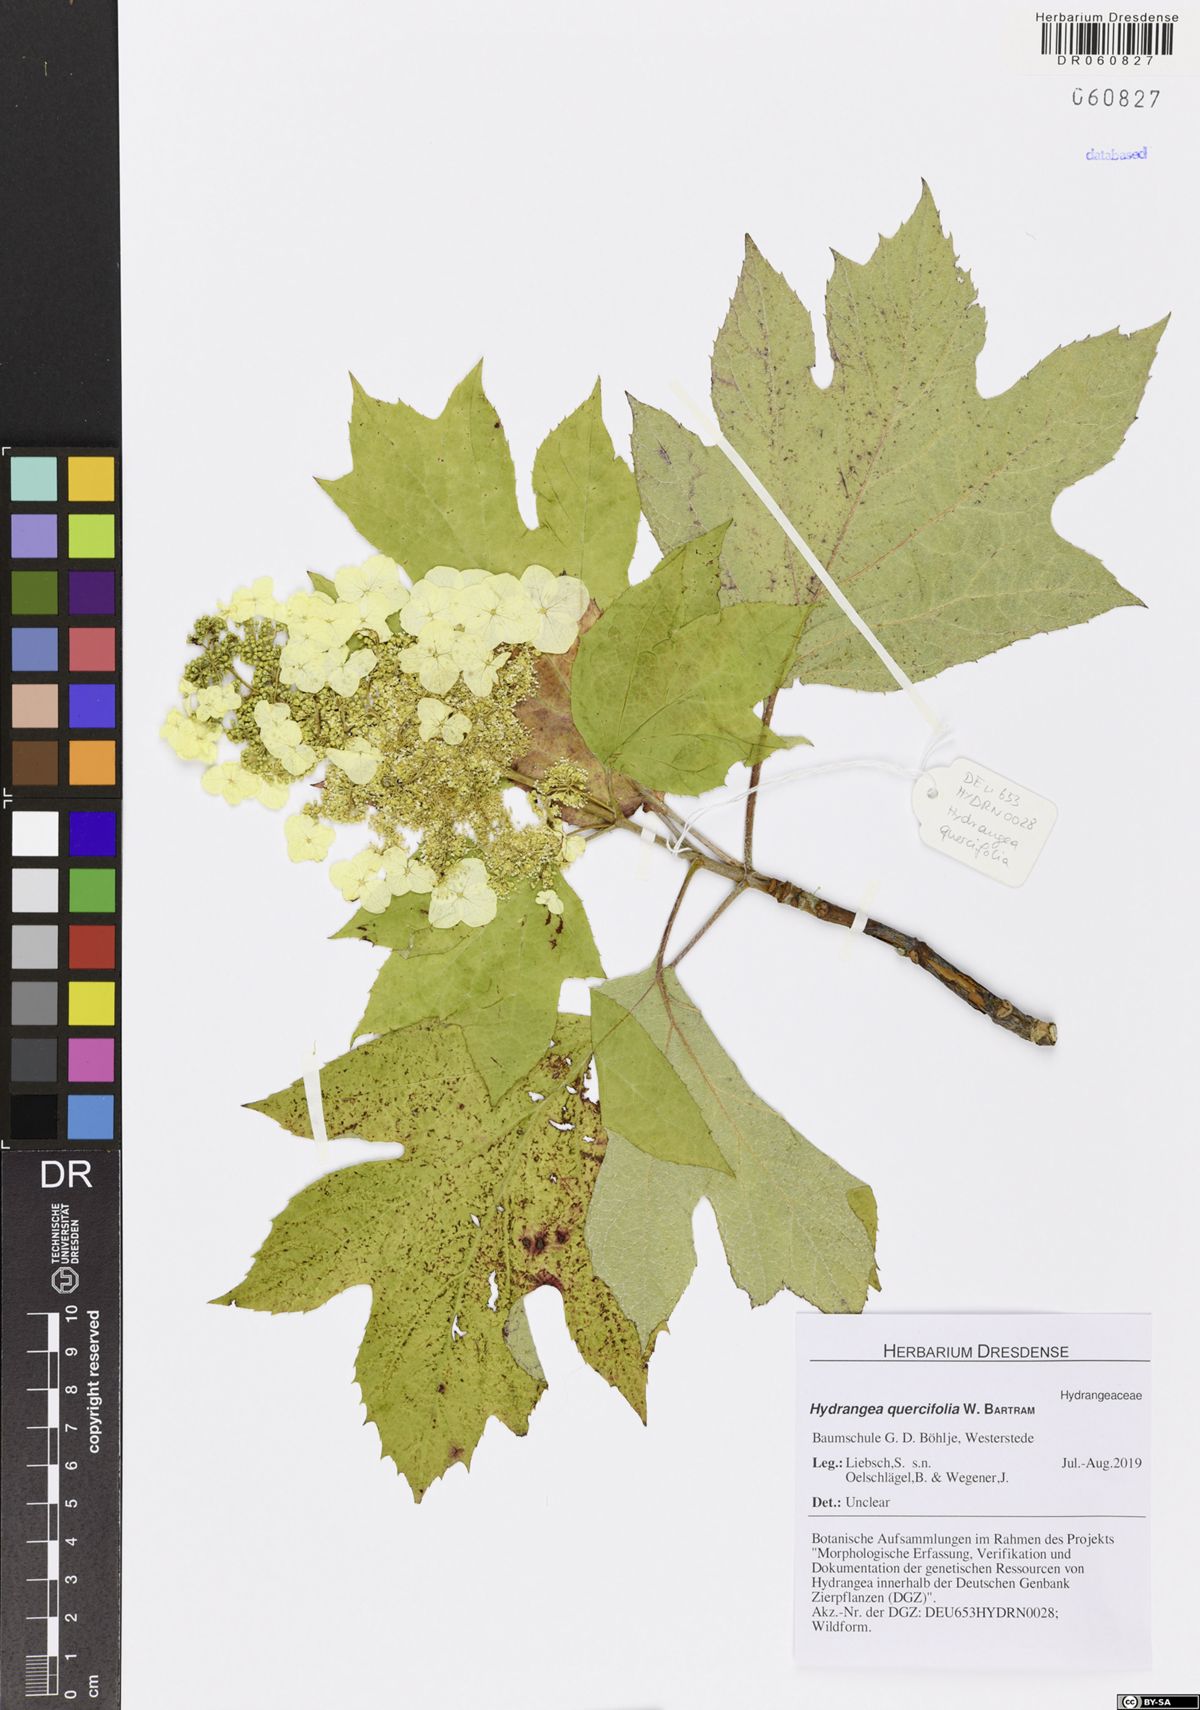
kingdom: Plantae
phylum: Tracheophyta
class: Magnoliopsida
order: Cornales
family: Hydrangeaceae
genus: Hydrangea
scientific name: Hydrangea quercifolia
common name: Oak-leaf hydrangea
